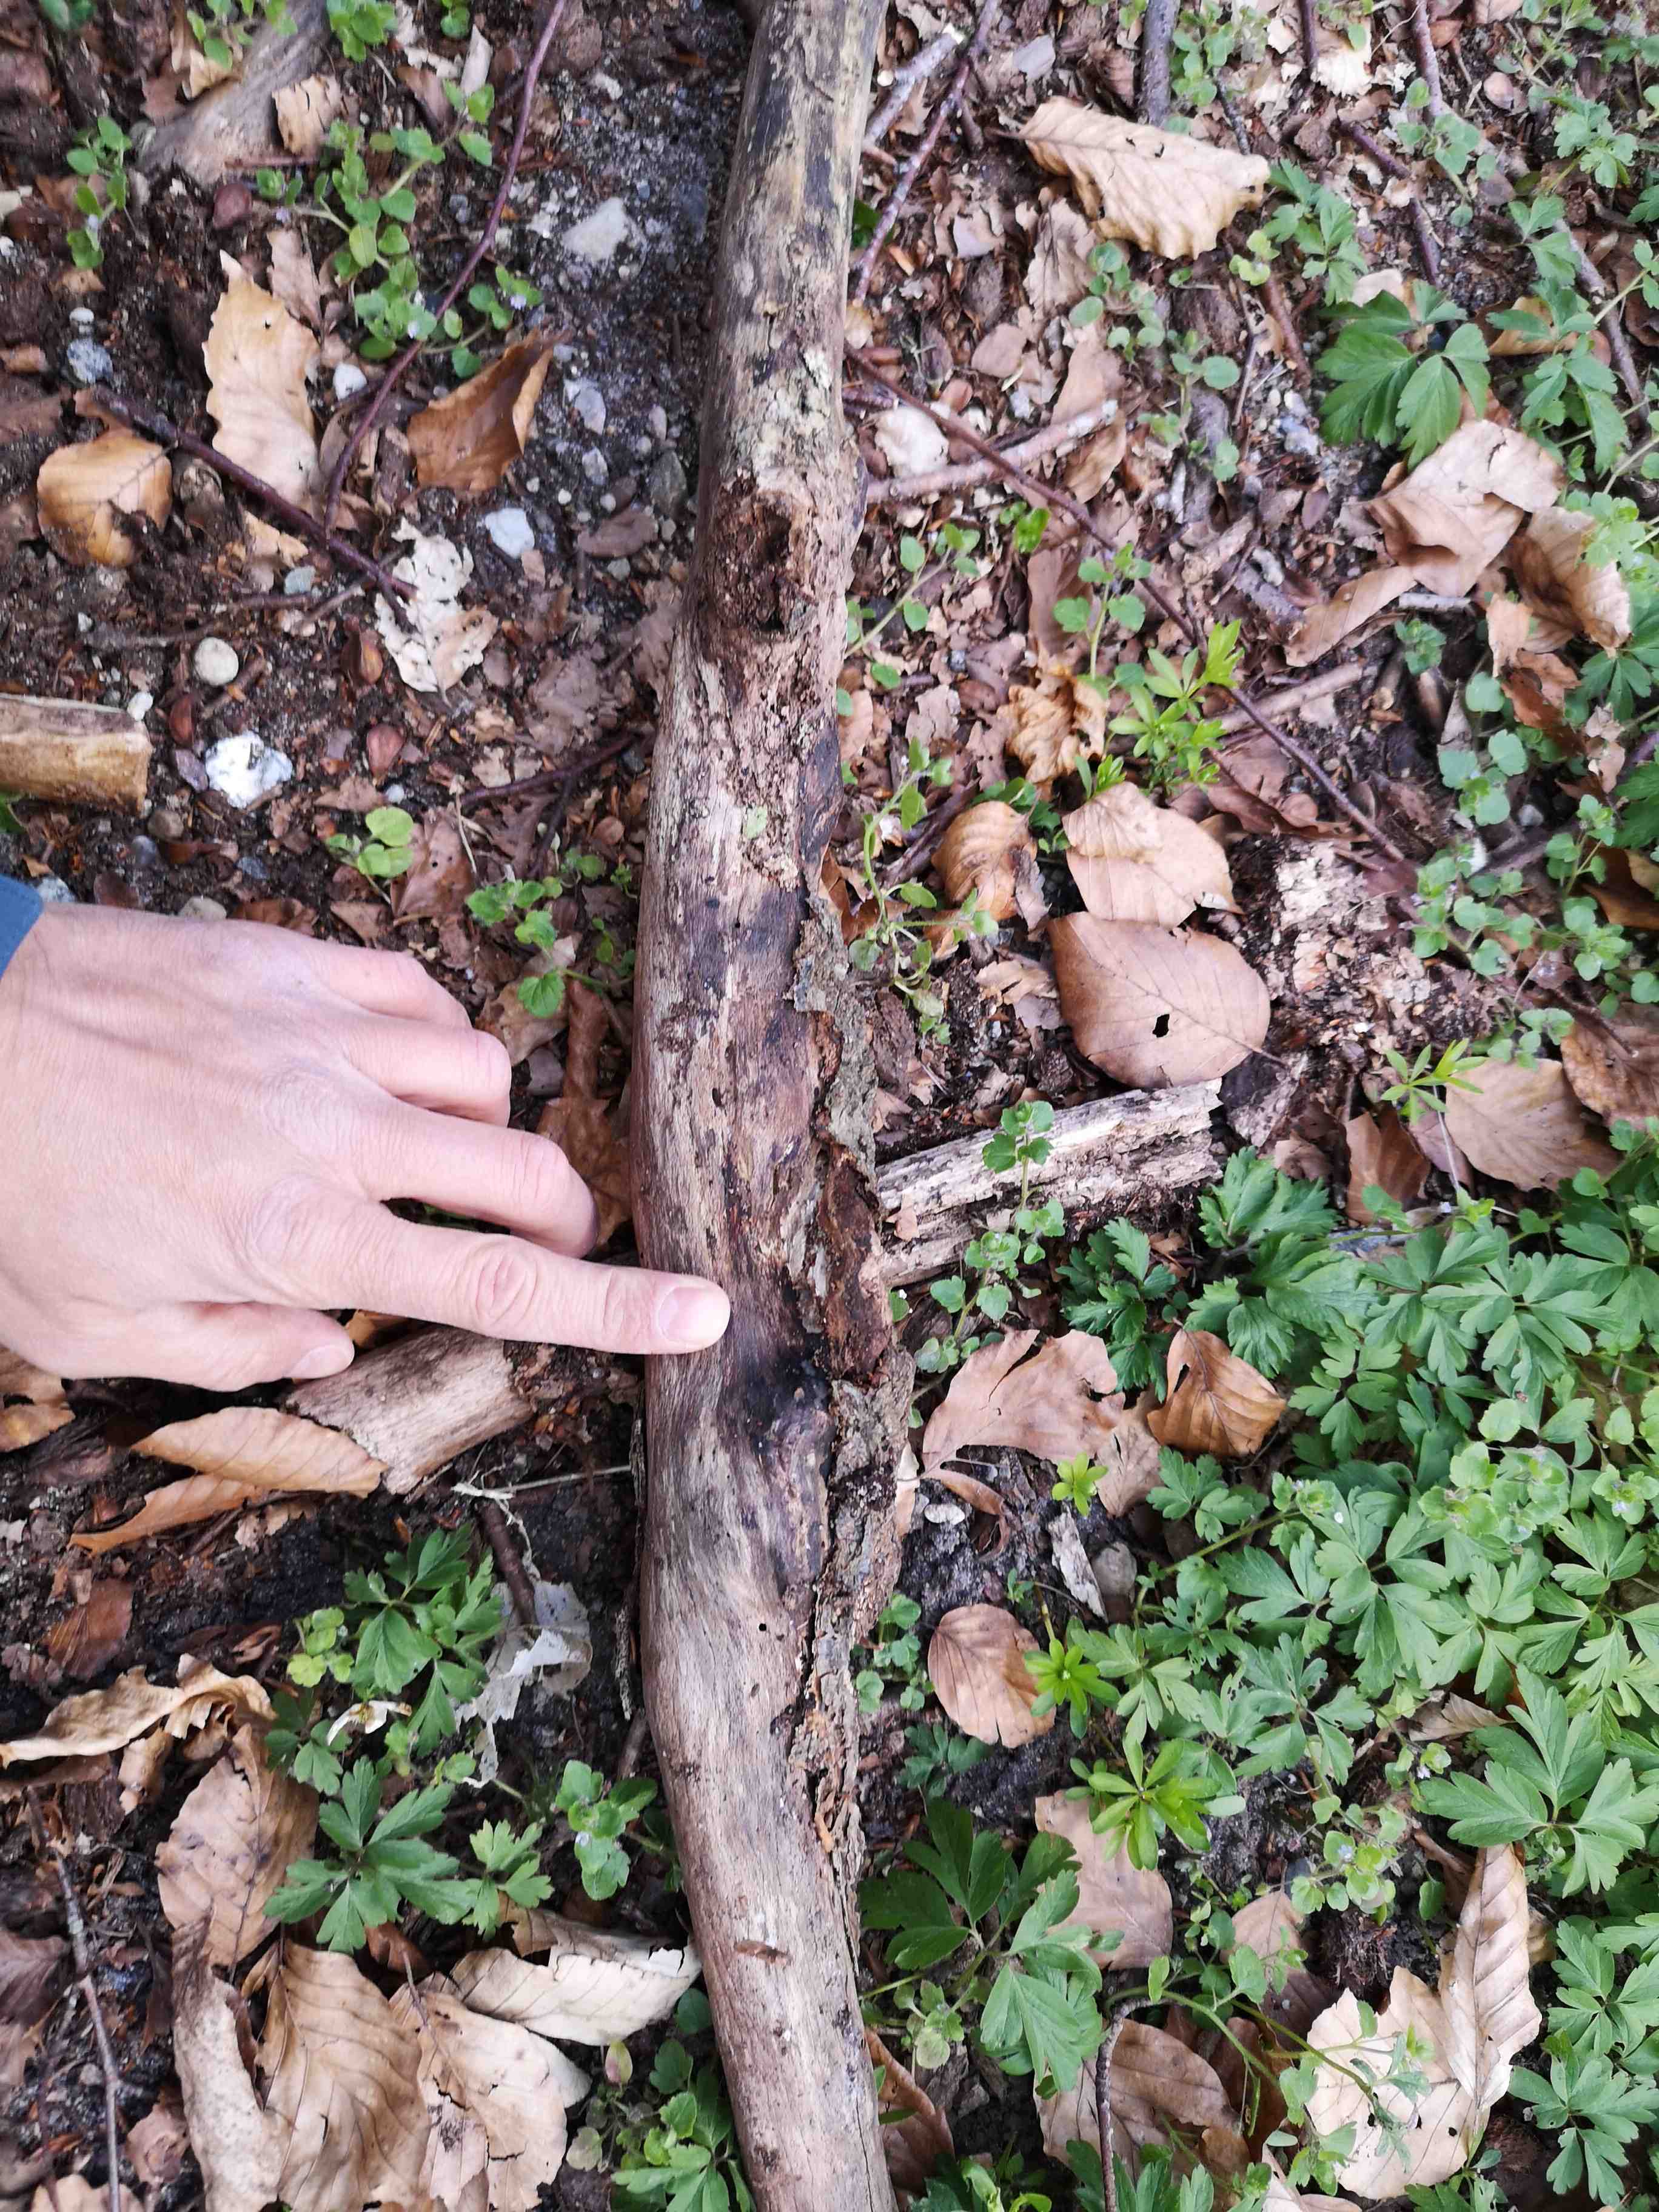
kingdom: Fungi
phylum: Basidiomycota
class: Agaricomycetes
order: Auriculariales
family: Auriculariaceae
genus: Exidia
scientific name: Exidia thuretiana
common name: hvidlig bævretop
